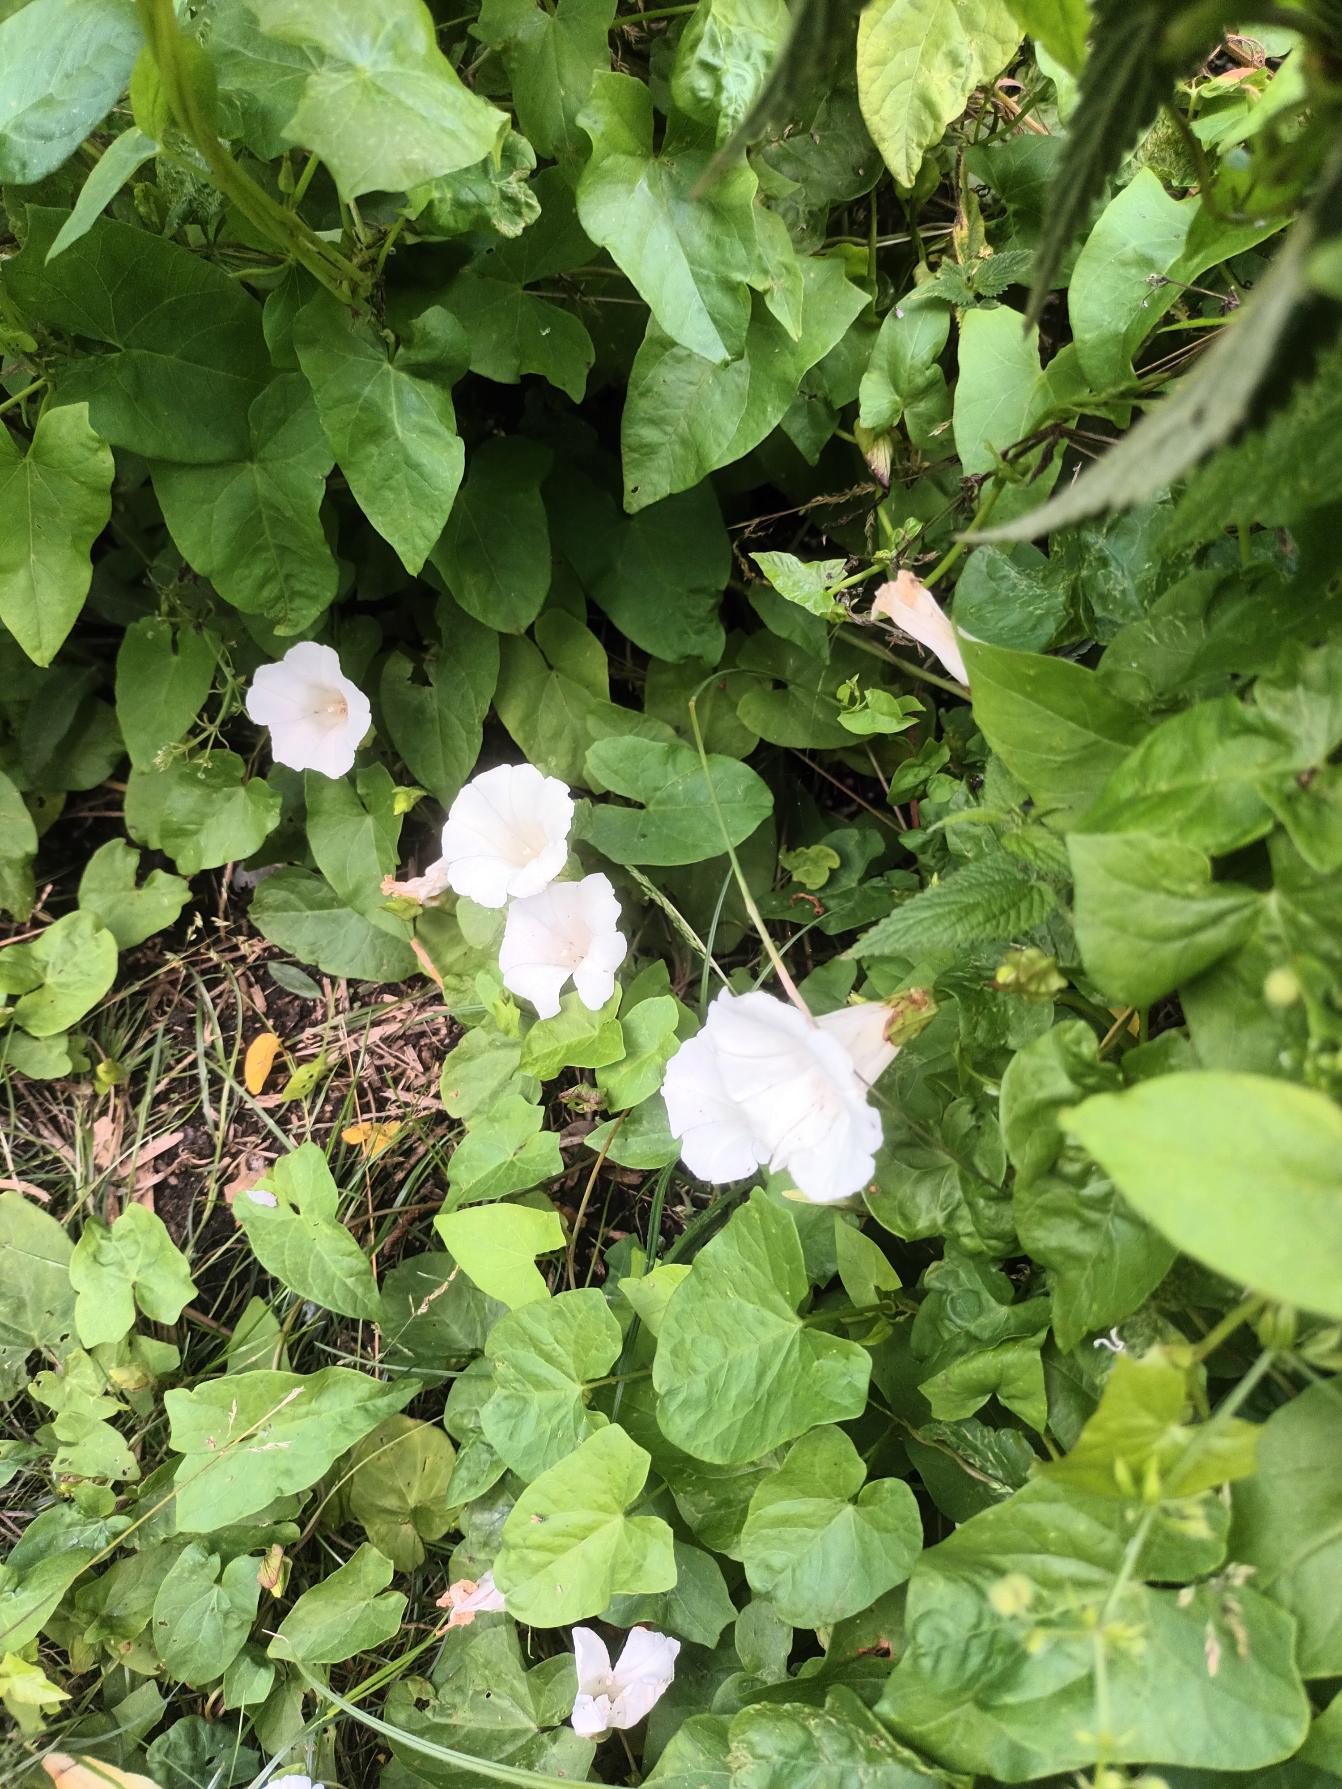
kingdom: Plantae
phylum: Tracheophyta
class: Magnoliopsida
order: Solanales
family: Convolvulaceae
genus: Calystegia
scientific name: Calystegia sepium
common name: Gærde-snerle
